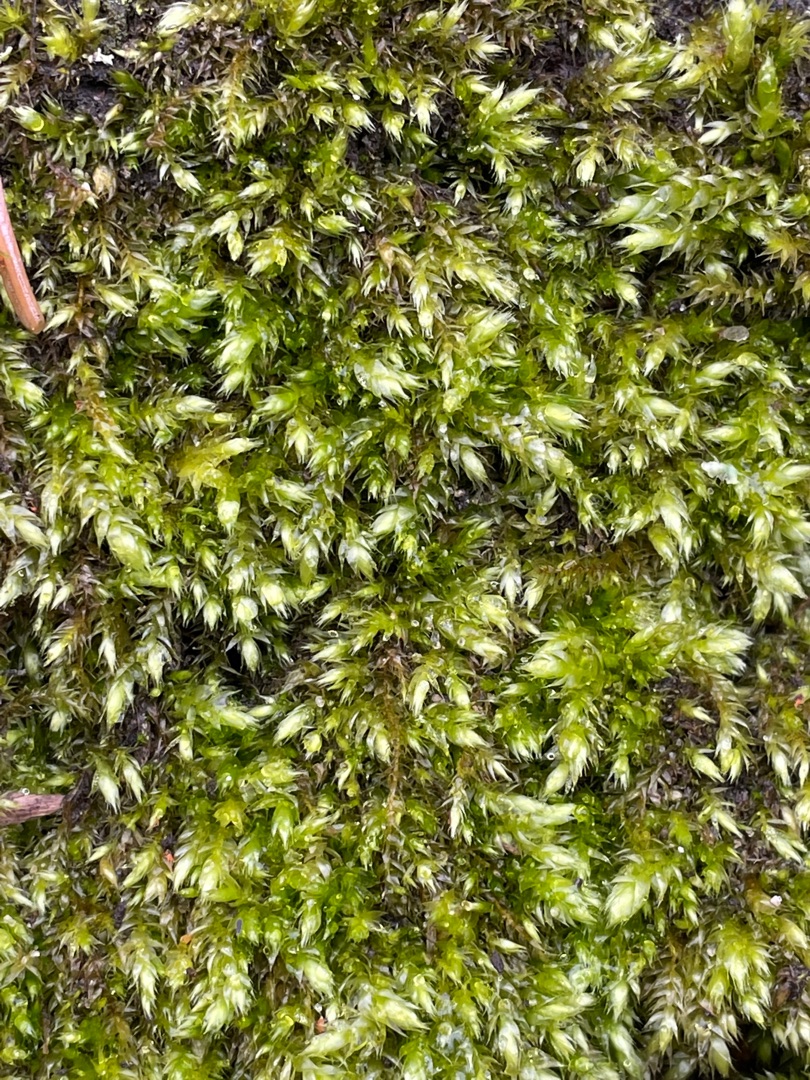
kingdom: Plantae
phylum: Bryophyta
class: Bryopsida
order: Hypnales
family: Brachytheciaceae
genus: Brachythecium
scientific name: Brachythecium rutabulum
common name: Almindelig kortkapsel
